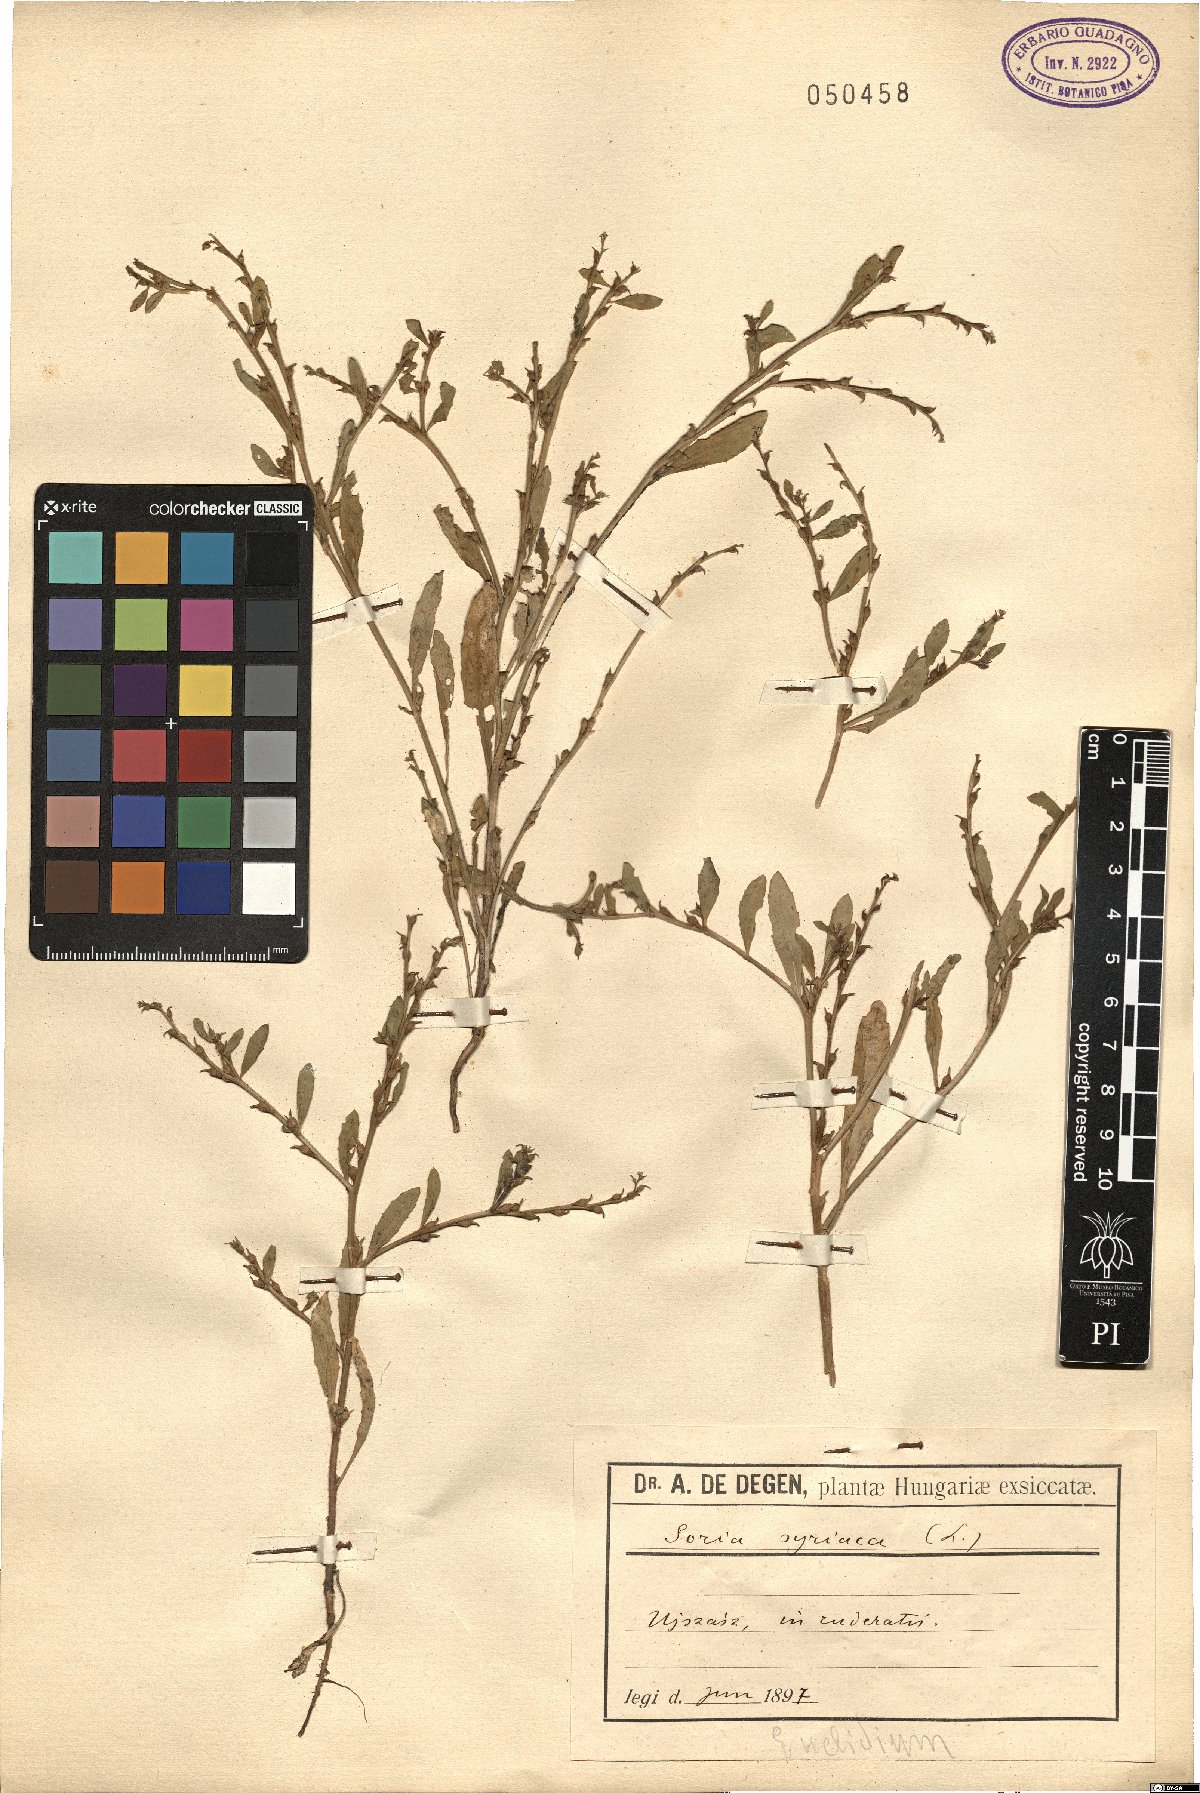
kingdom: Plantae
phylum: Tracheophyta
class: Magnoliopsida
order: Brassicales
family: Brassicaceae
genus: Euclidium
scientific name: Euclidium syriacum
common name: Syrian mustard
